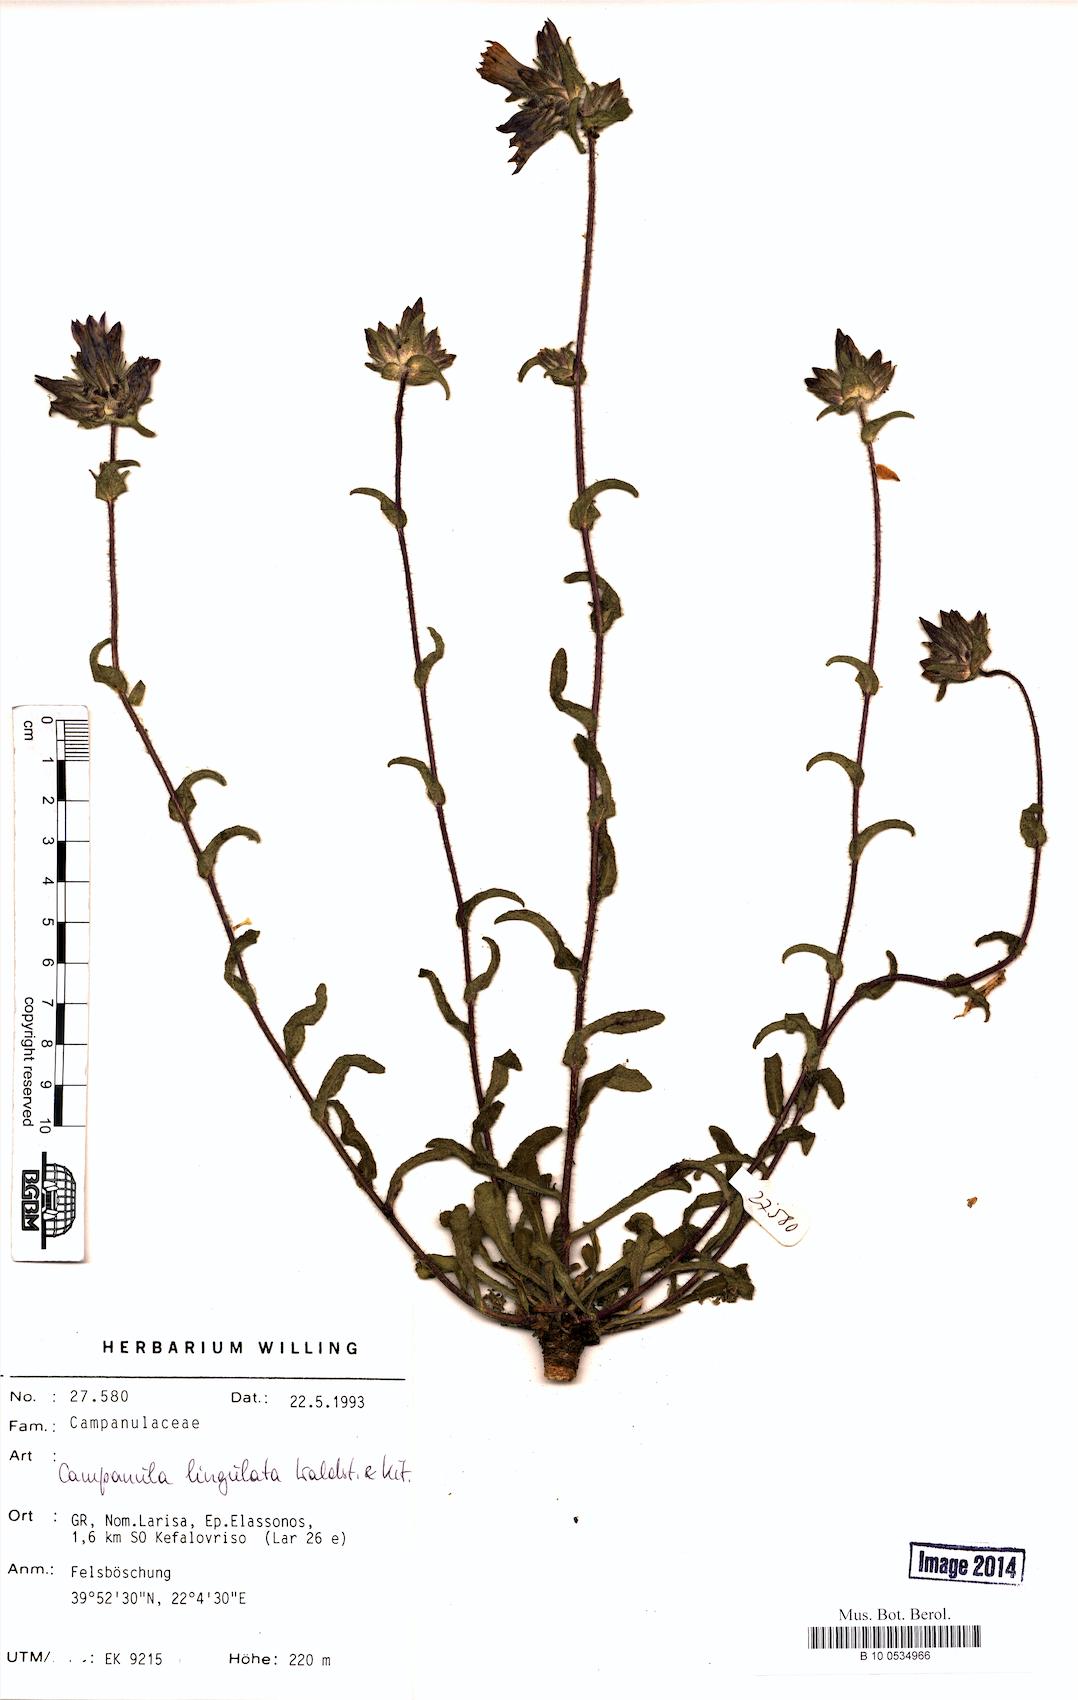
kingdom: Plantae
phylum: Tracheophyta
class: Magnoliopsida
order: Asterales
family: Campanulaceae
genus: Campanula
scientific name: Campanula lingulata
